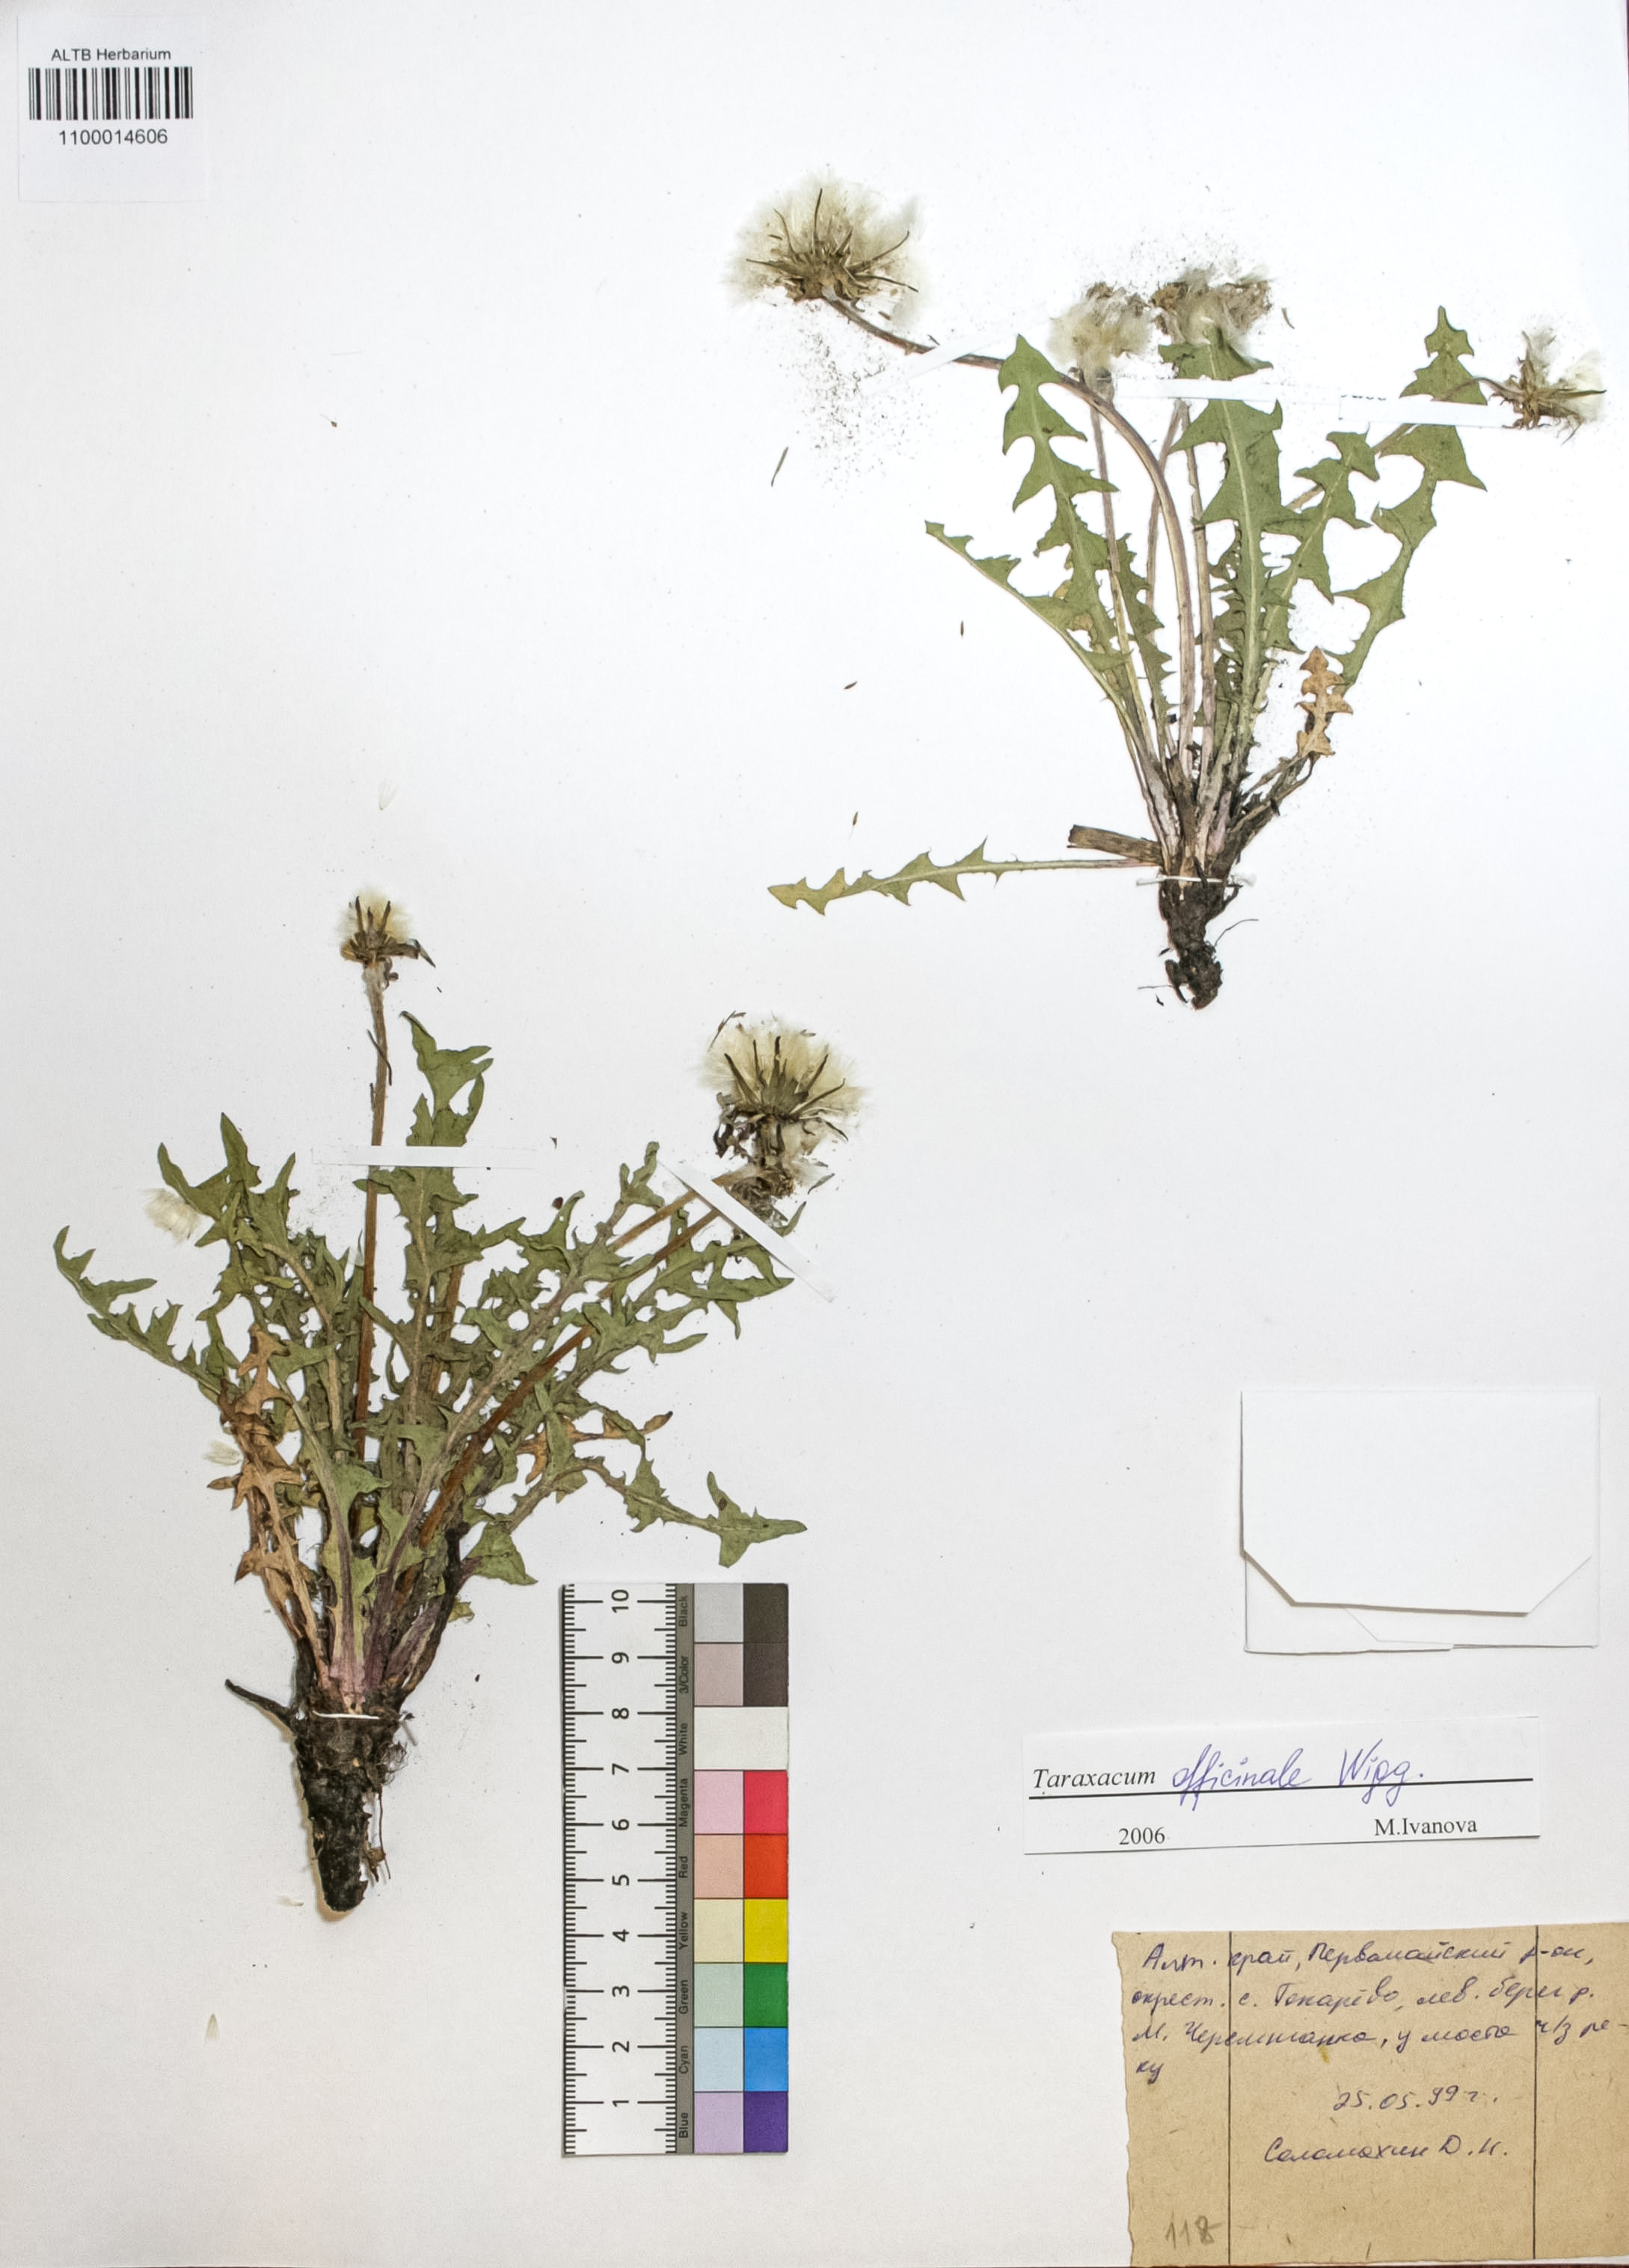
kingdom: Plantae
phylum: Tracheophyta
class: Magnoliopsida
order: Asterales
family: Asteraceae
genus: Taraxacum
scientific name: Taraxacum officinale
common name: Common dandelion
